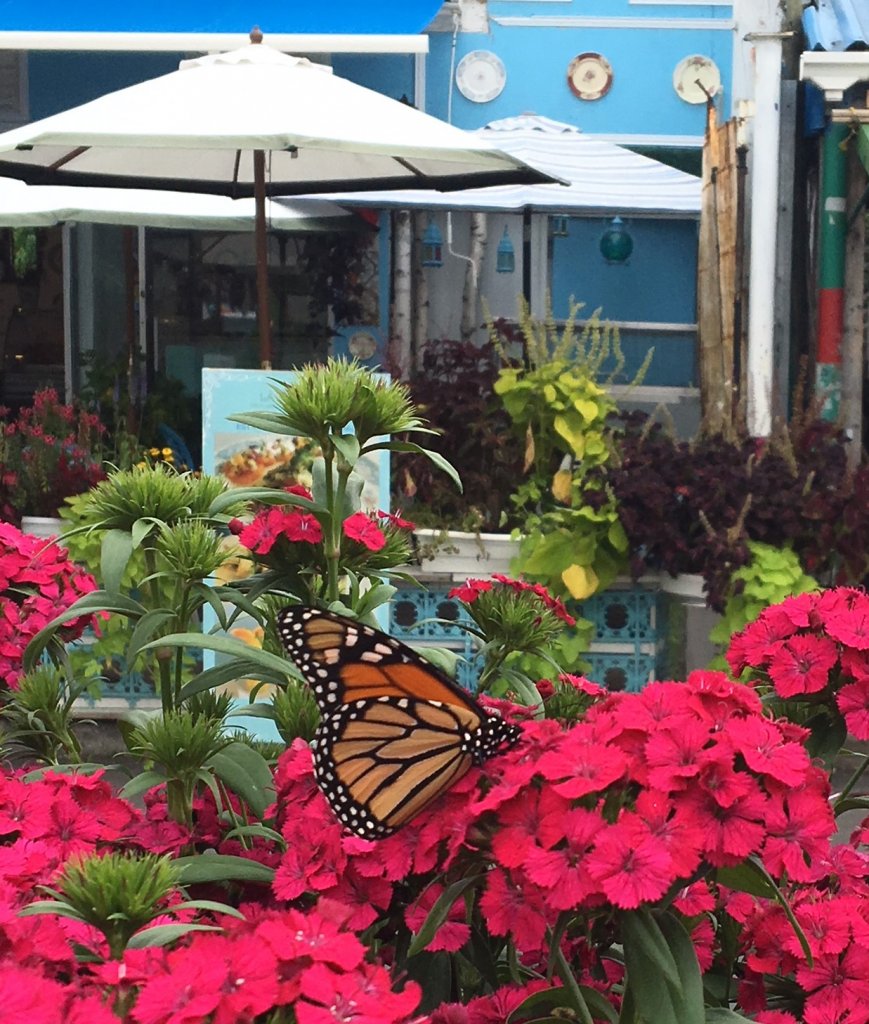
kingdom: Animalia
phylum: Arthropoda
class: Insecta
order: Lepidoptera
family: Nymphalidae
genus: Danaus
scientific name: Danaus plexippus
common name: Monarch
